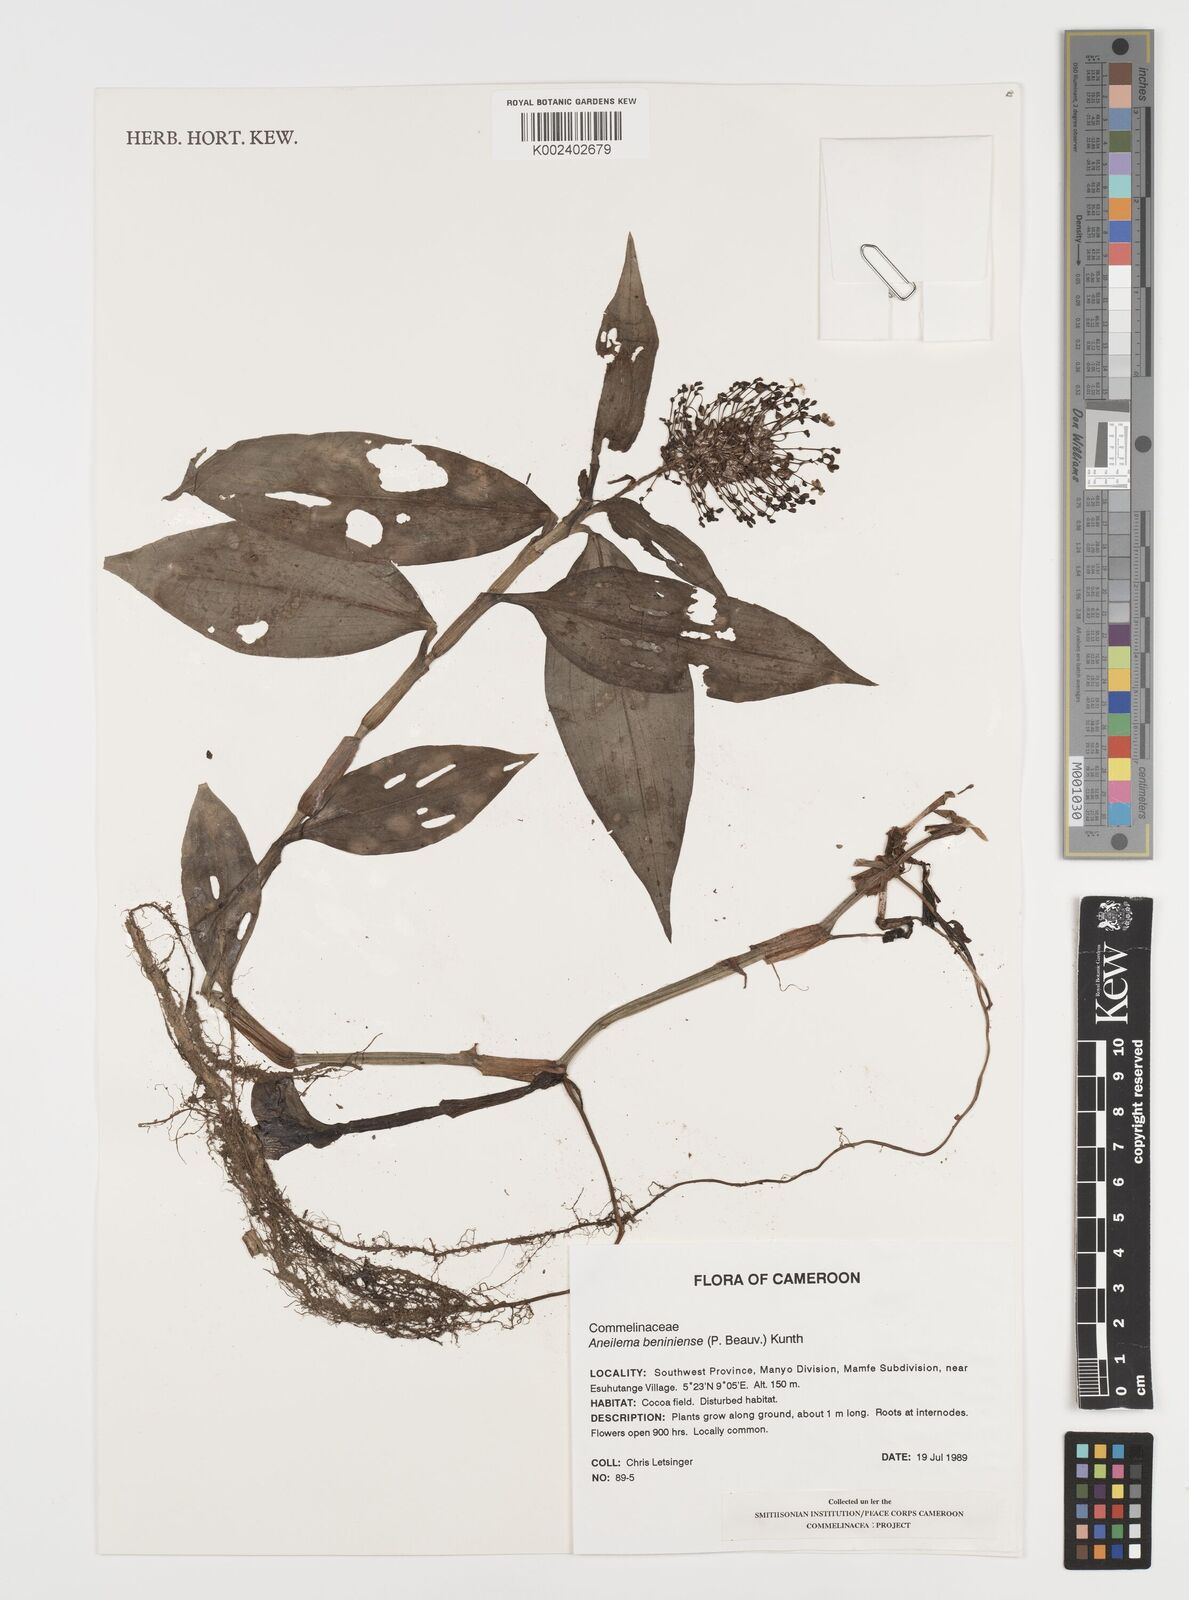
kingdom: Plantae
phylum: Tracheophyta
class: Liliopsida
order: Commelinales
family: Commelinaceae
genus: Aneilema
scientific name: Aneilema beniniense
